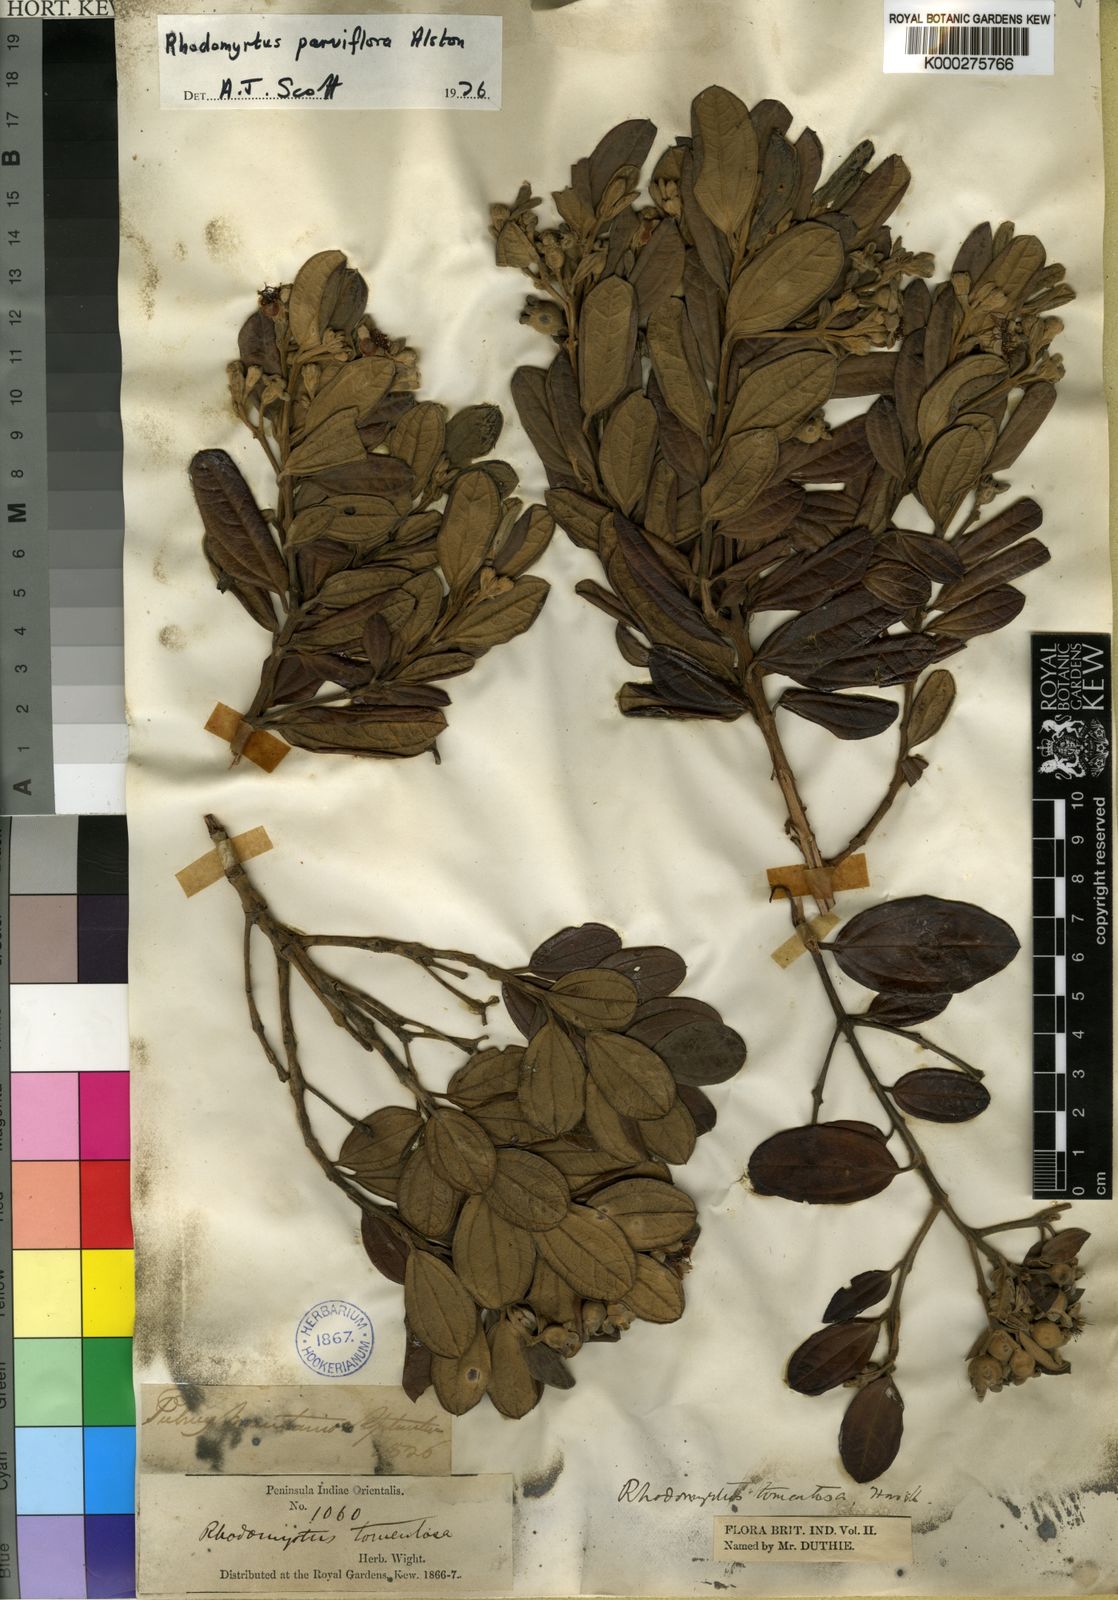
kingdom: Plantae
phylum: Tracheophyta
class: Magnoliopsida
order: Myrtales
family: Myrtaceae
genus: Rhodomyrtus
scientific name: Rhodomyrtus tomentosa
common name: Rose myrtle
